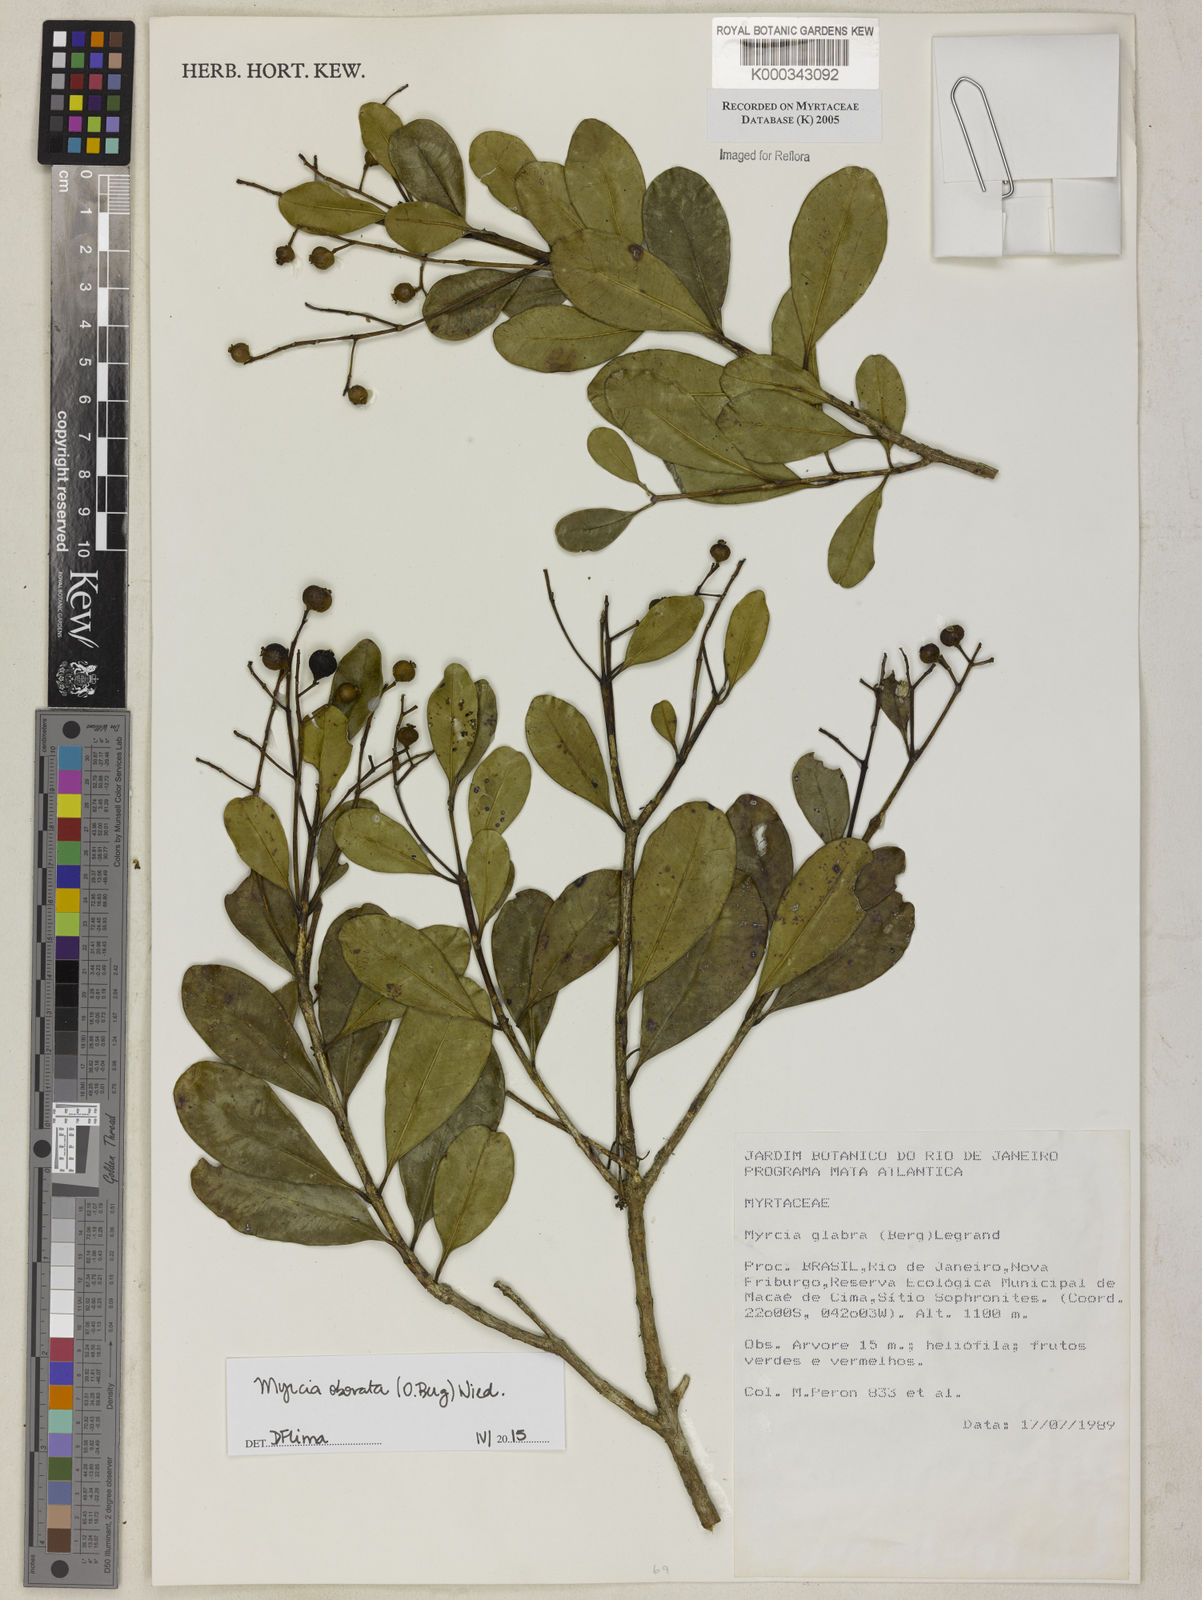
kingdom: Plantae
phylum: Tracheophyta
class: Magnoliopsida
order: Myrtales
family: Myrtaceae
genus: Myrcia
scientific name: Myrcia glabra
